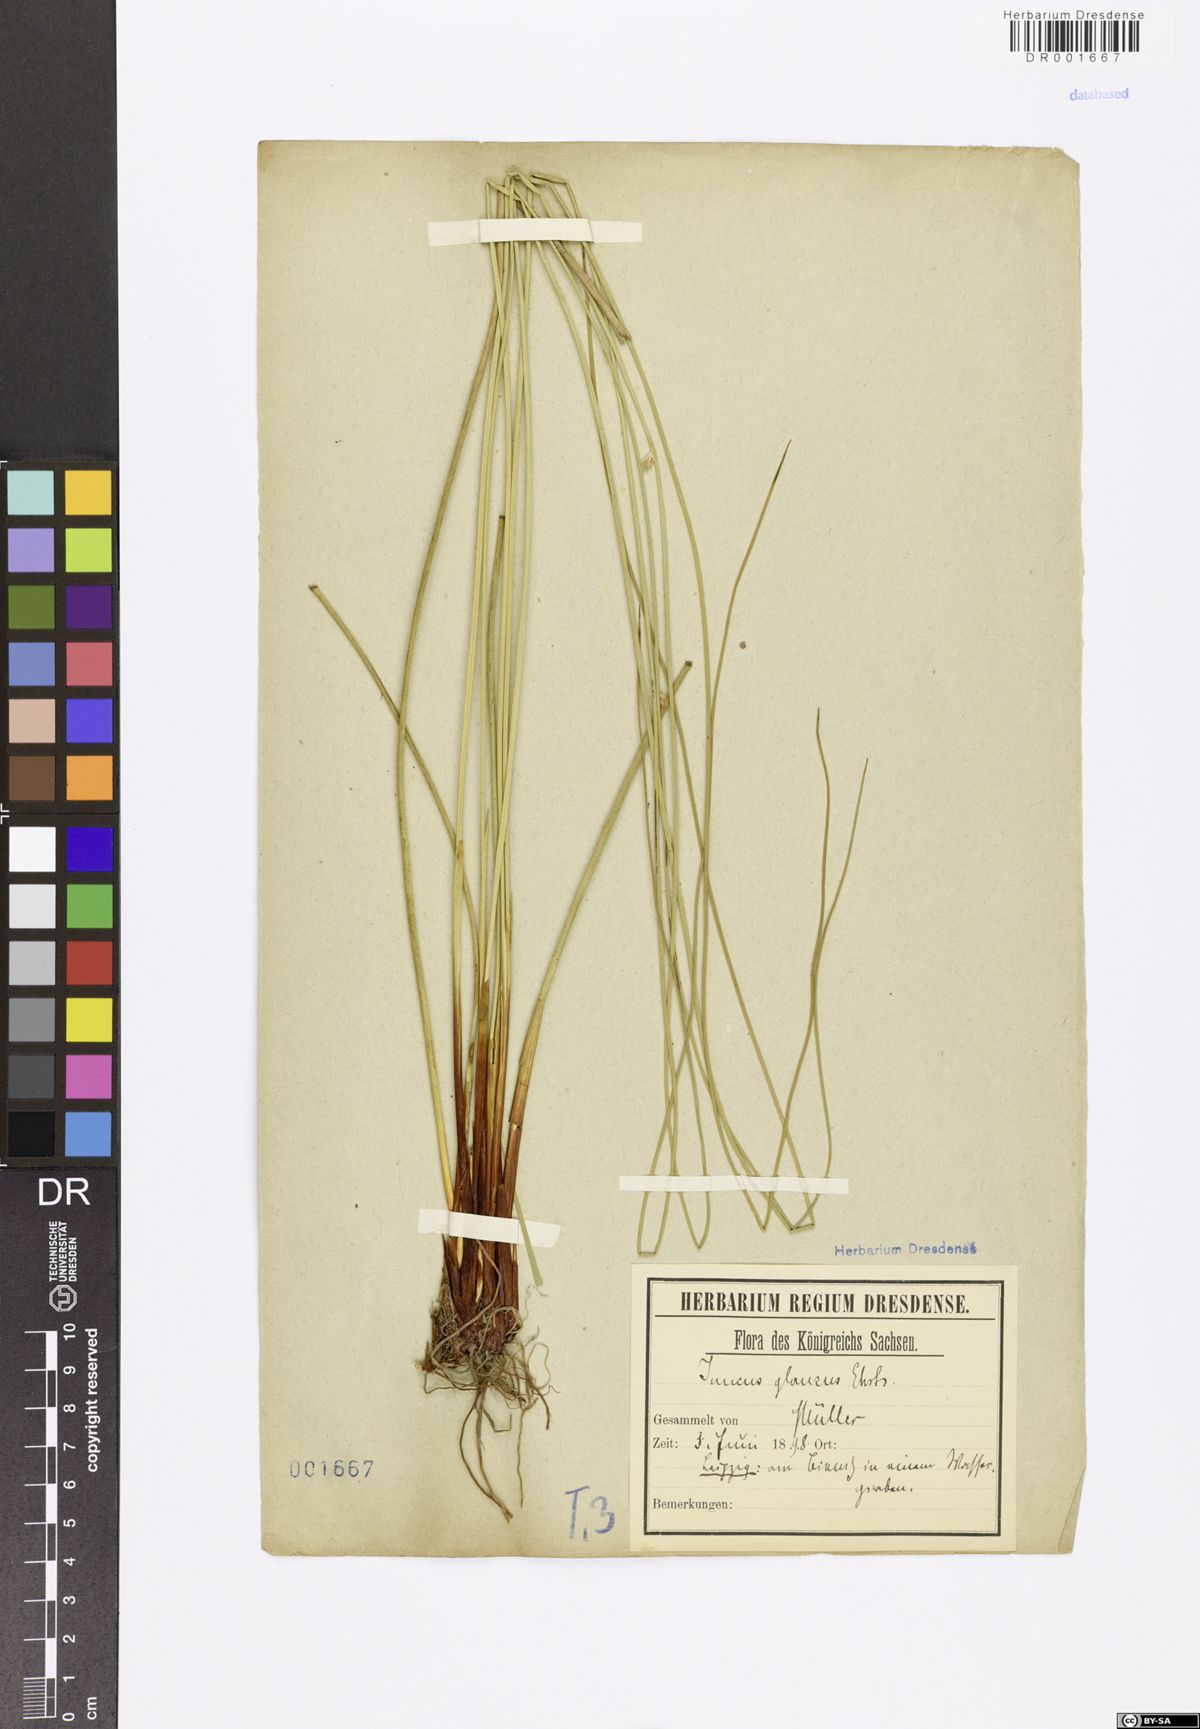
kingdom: Plantae
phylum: Tracheophyta
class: Liliopsida
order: Poales
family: Juncaceae
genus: Juncus
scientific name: Juncus inflexus
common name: Hard rush
